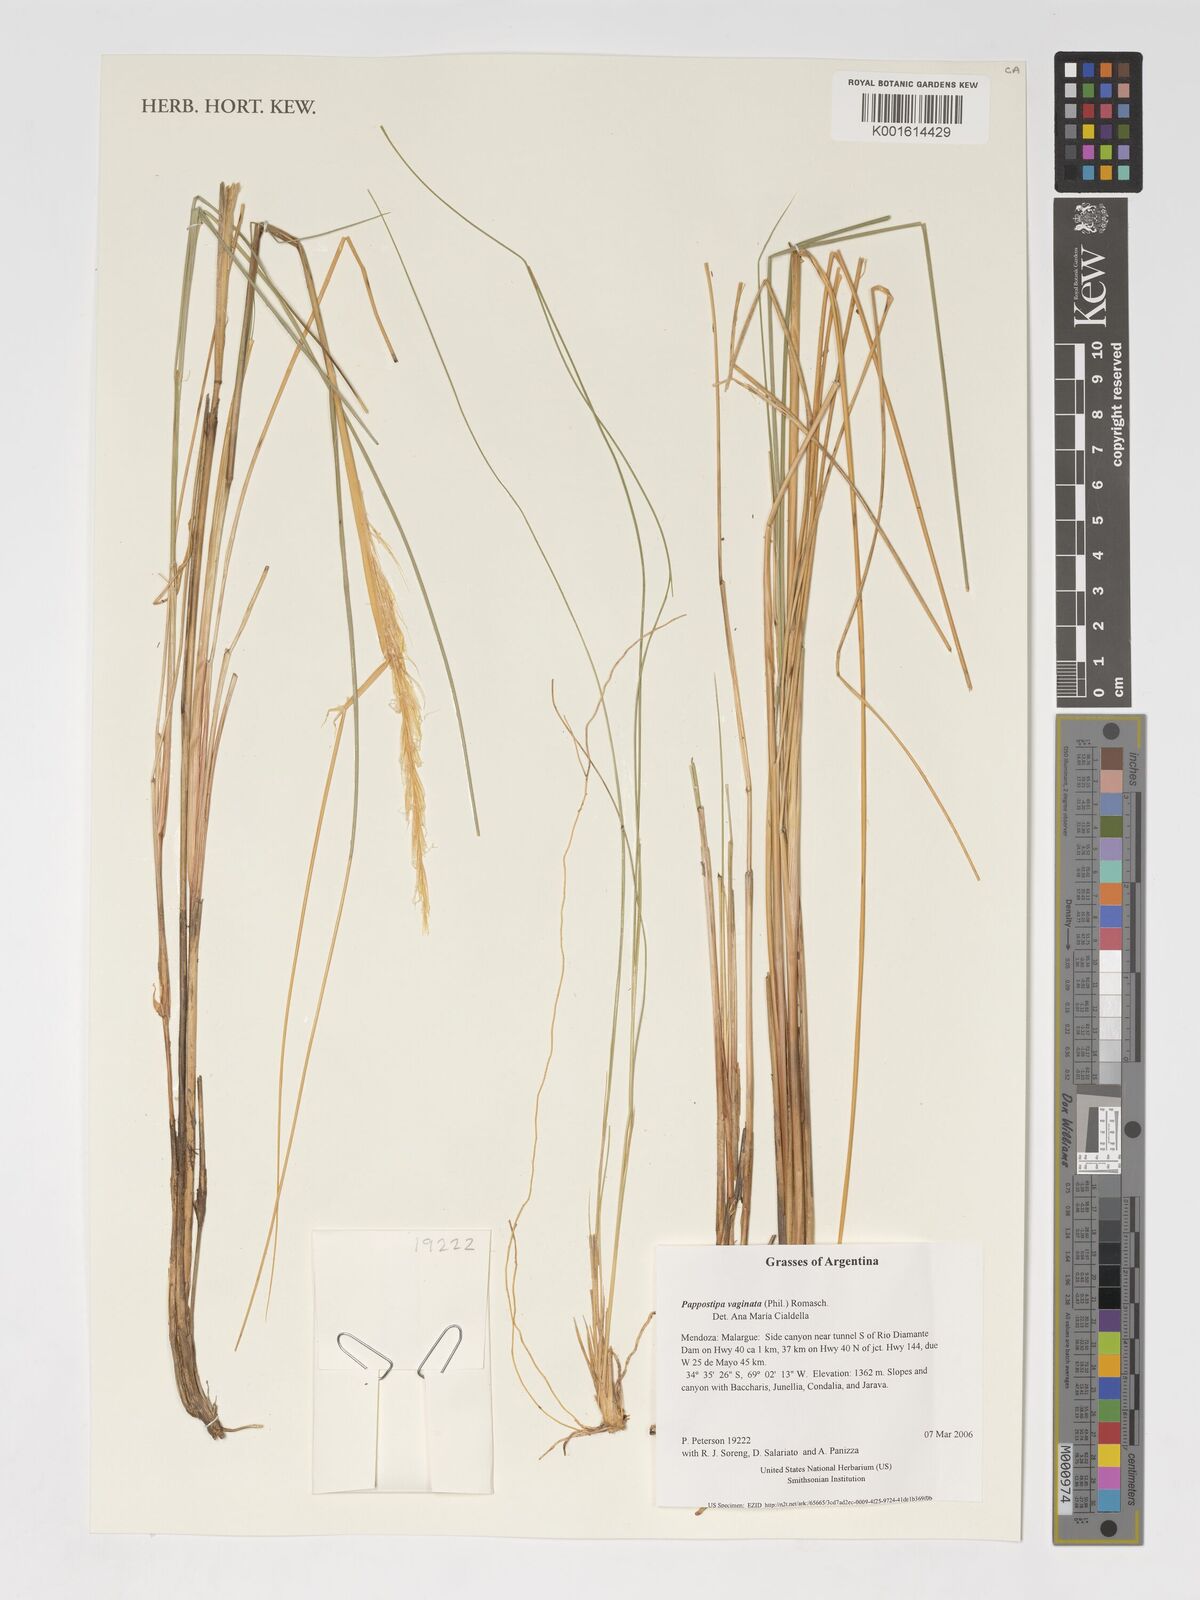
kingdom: Plantae
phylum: Tracheophyta
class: Liliopsida
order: Poales
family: Poaceae
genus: Pappostipa
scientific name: Pappostipa vaginata
